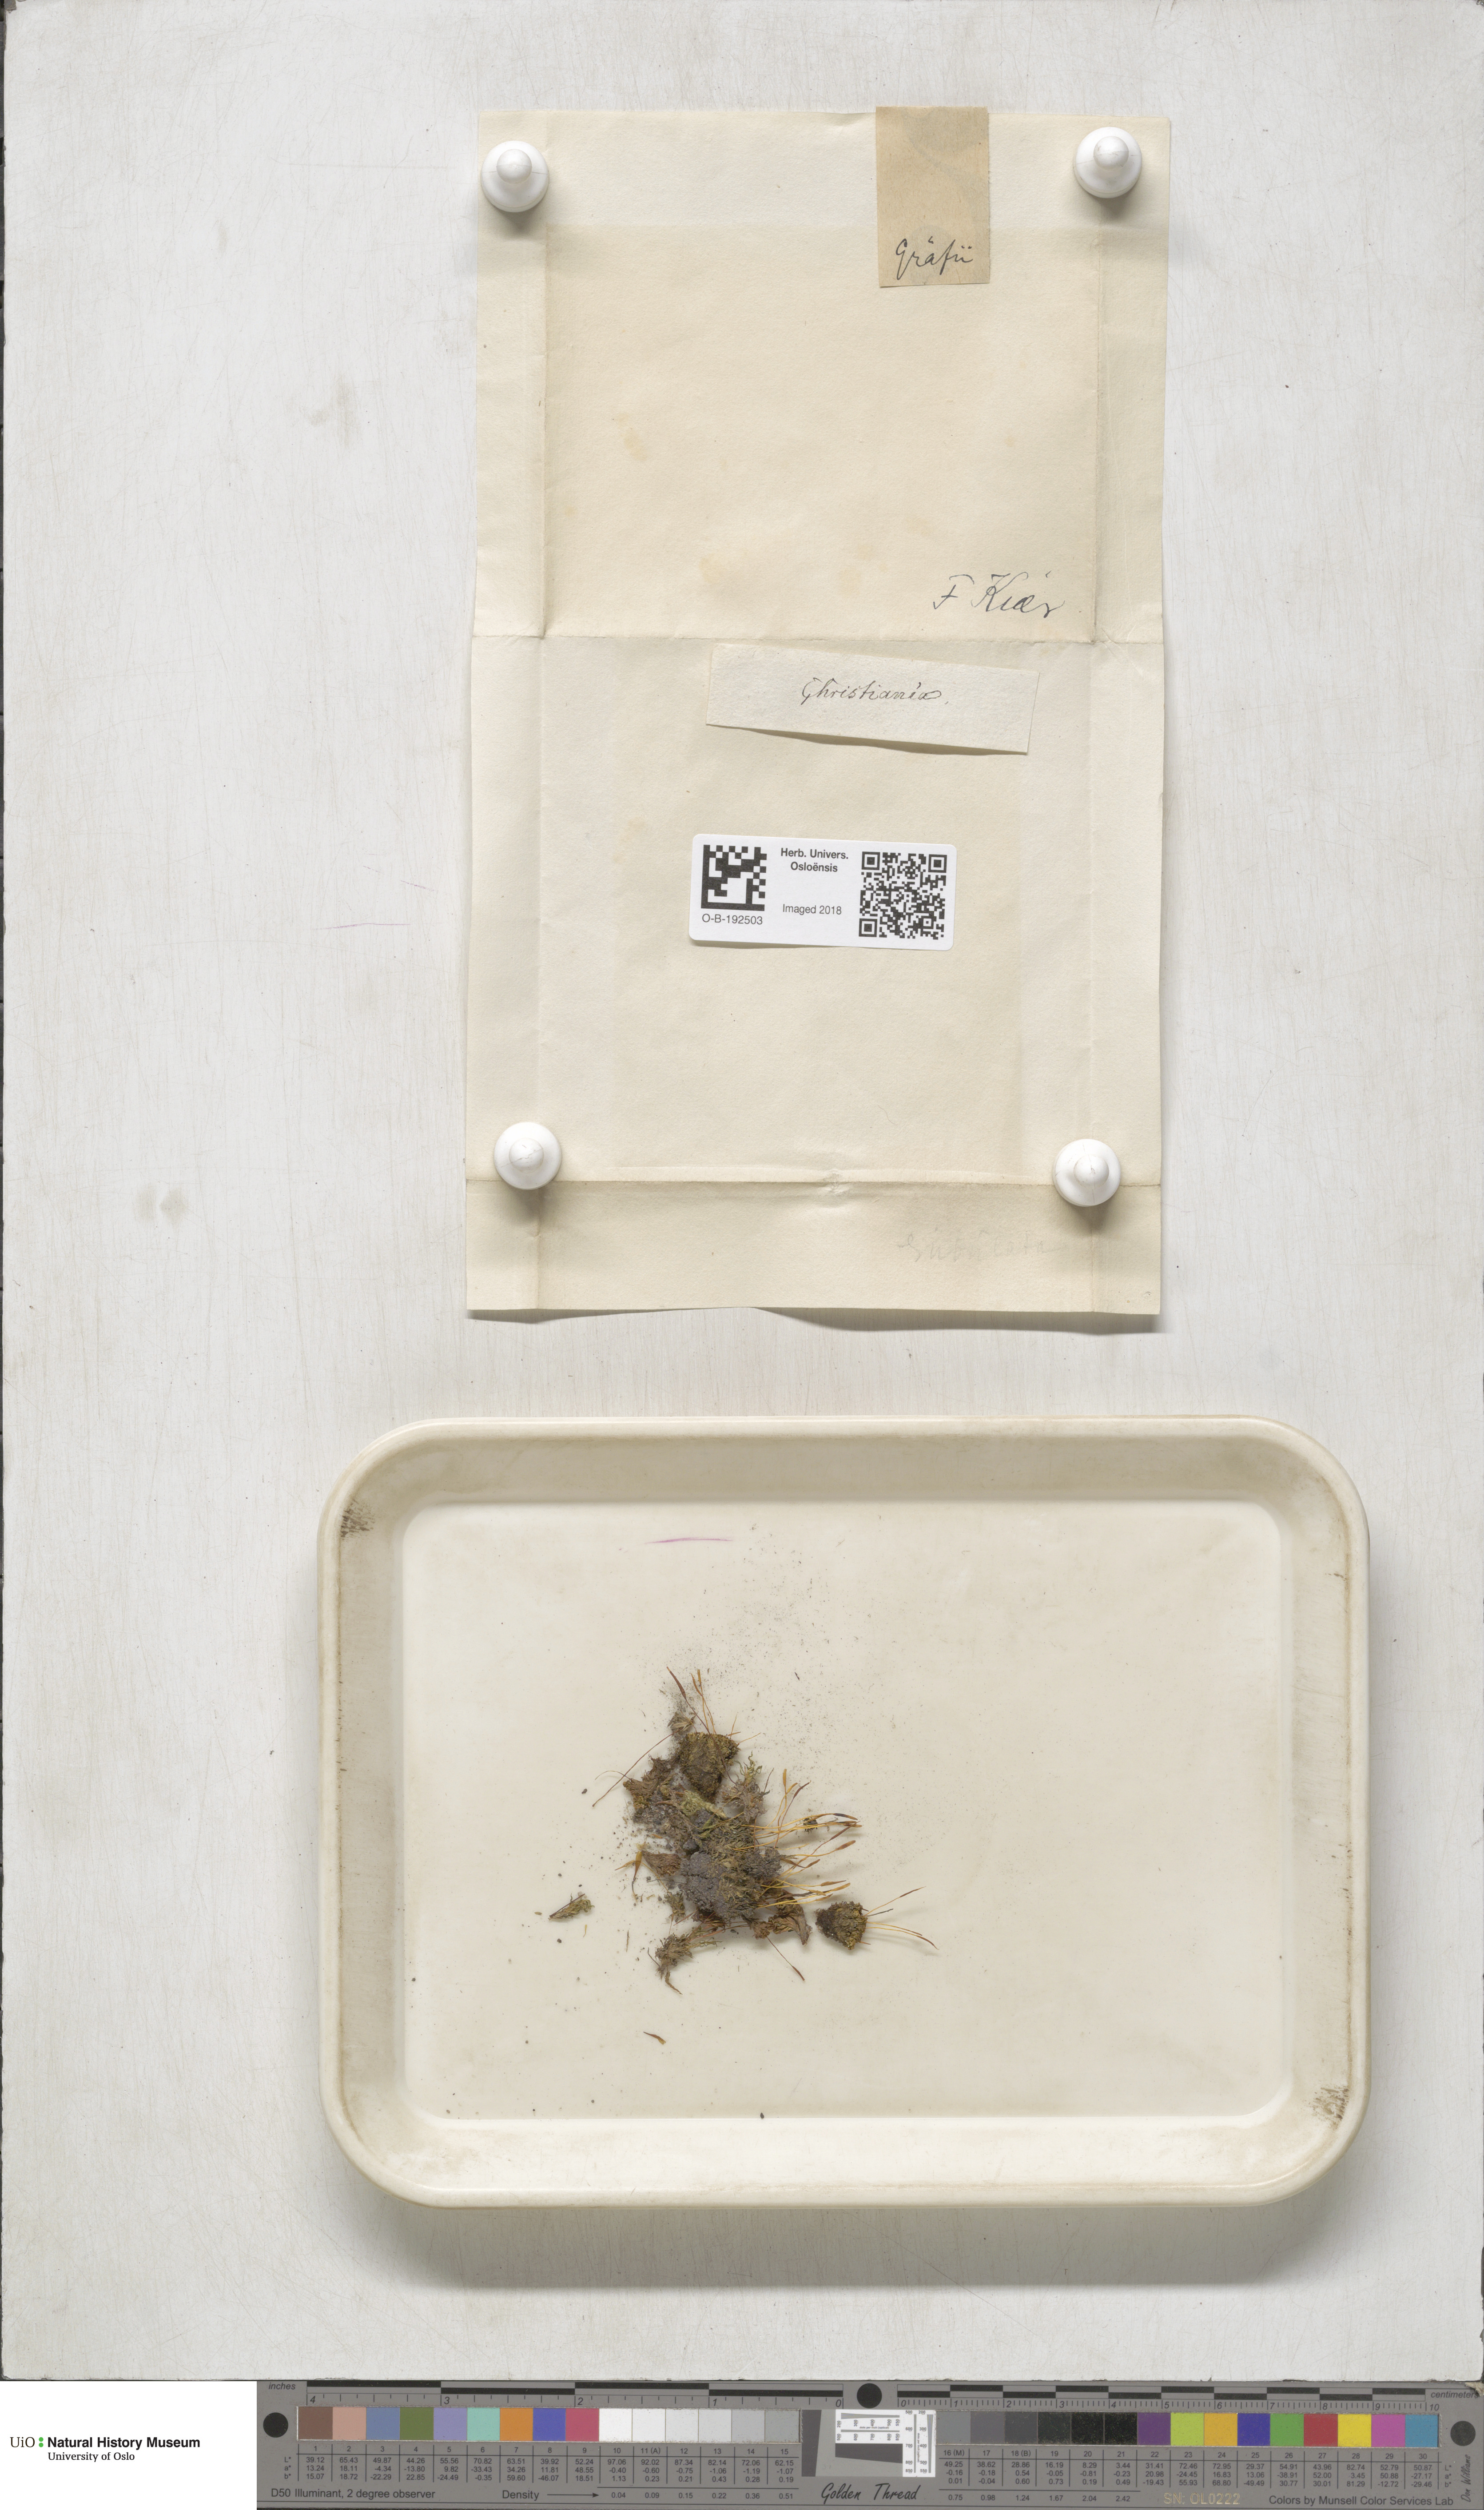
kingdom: Plantae
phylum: Bryophyta
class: Bryopsida
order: Pottiales
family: Pottiaceae
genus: Tortula
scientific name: Tortula subulata
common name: Upright screw-moss
